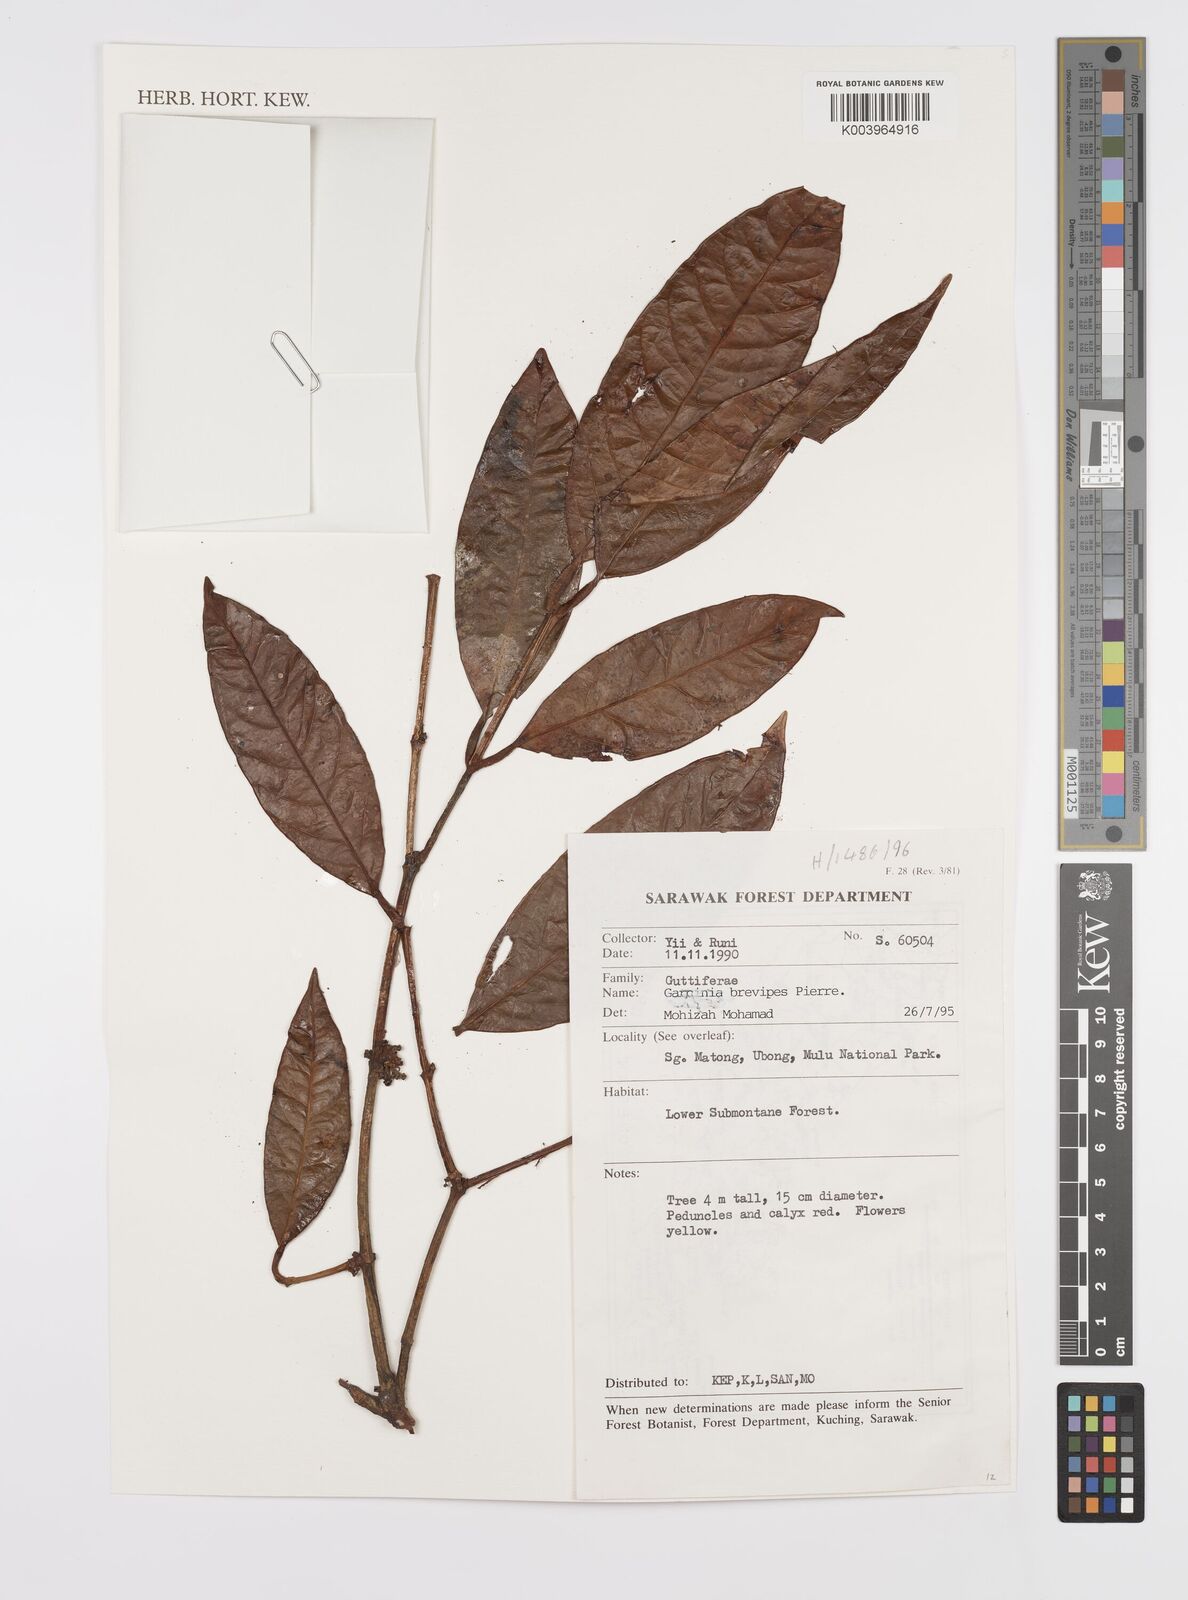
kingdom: Plantae
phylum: Tracheophyta
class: Magnoliopsida
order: Malpighiales
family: Clusiaceae
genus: Garcinia
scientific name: Garcinia brevipes
